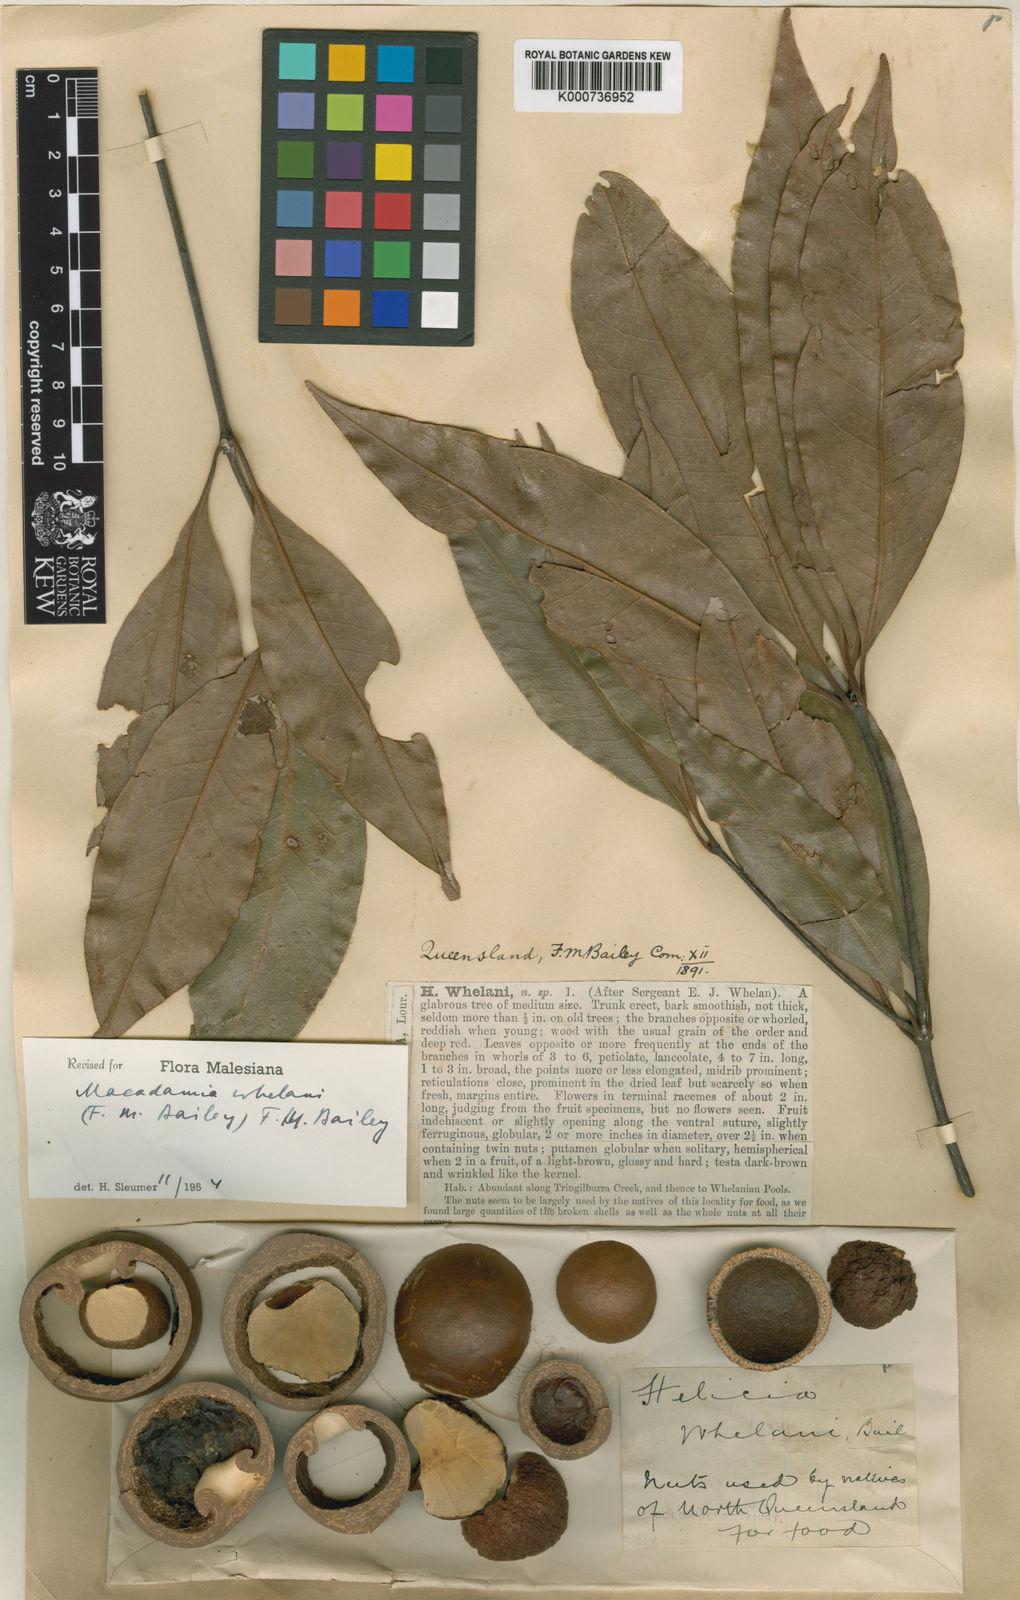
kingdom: Plantae
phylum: Tracheophyta
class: Magnoliopsida
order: Proteales
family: Proteaceae
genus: Lasjia
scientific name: Lasjia whelanii
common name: Whelan's nut-oak
